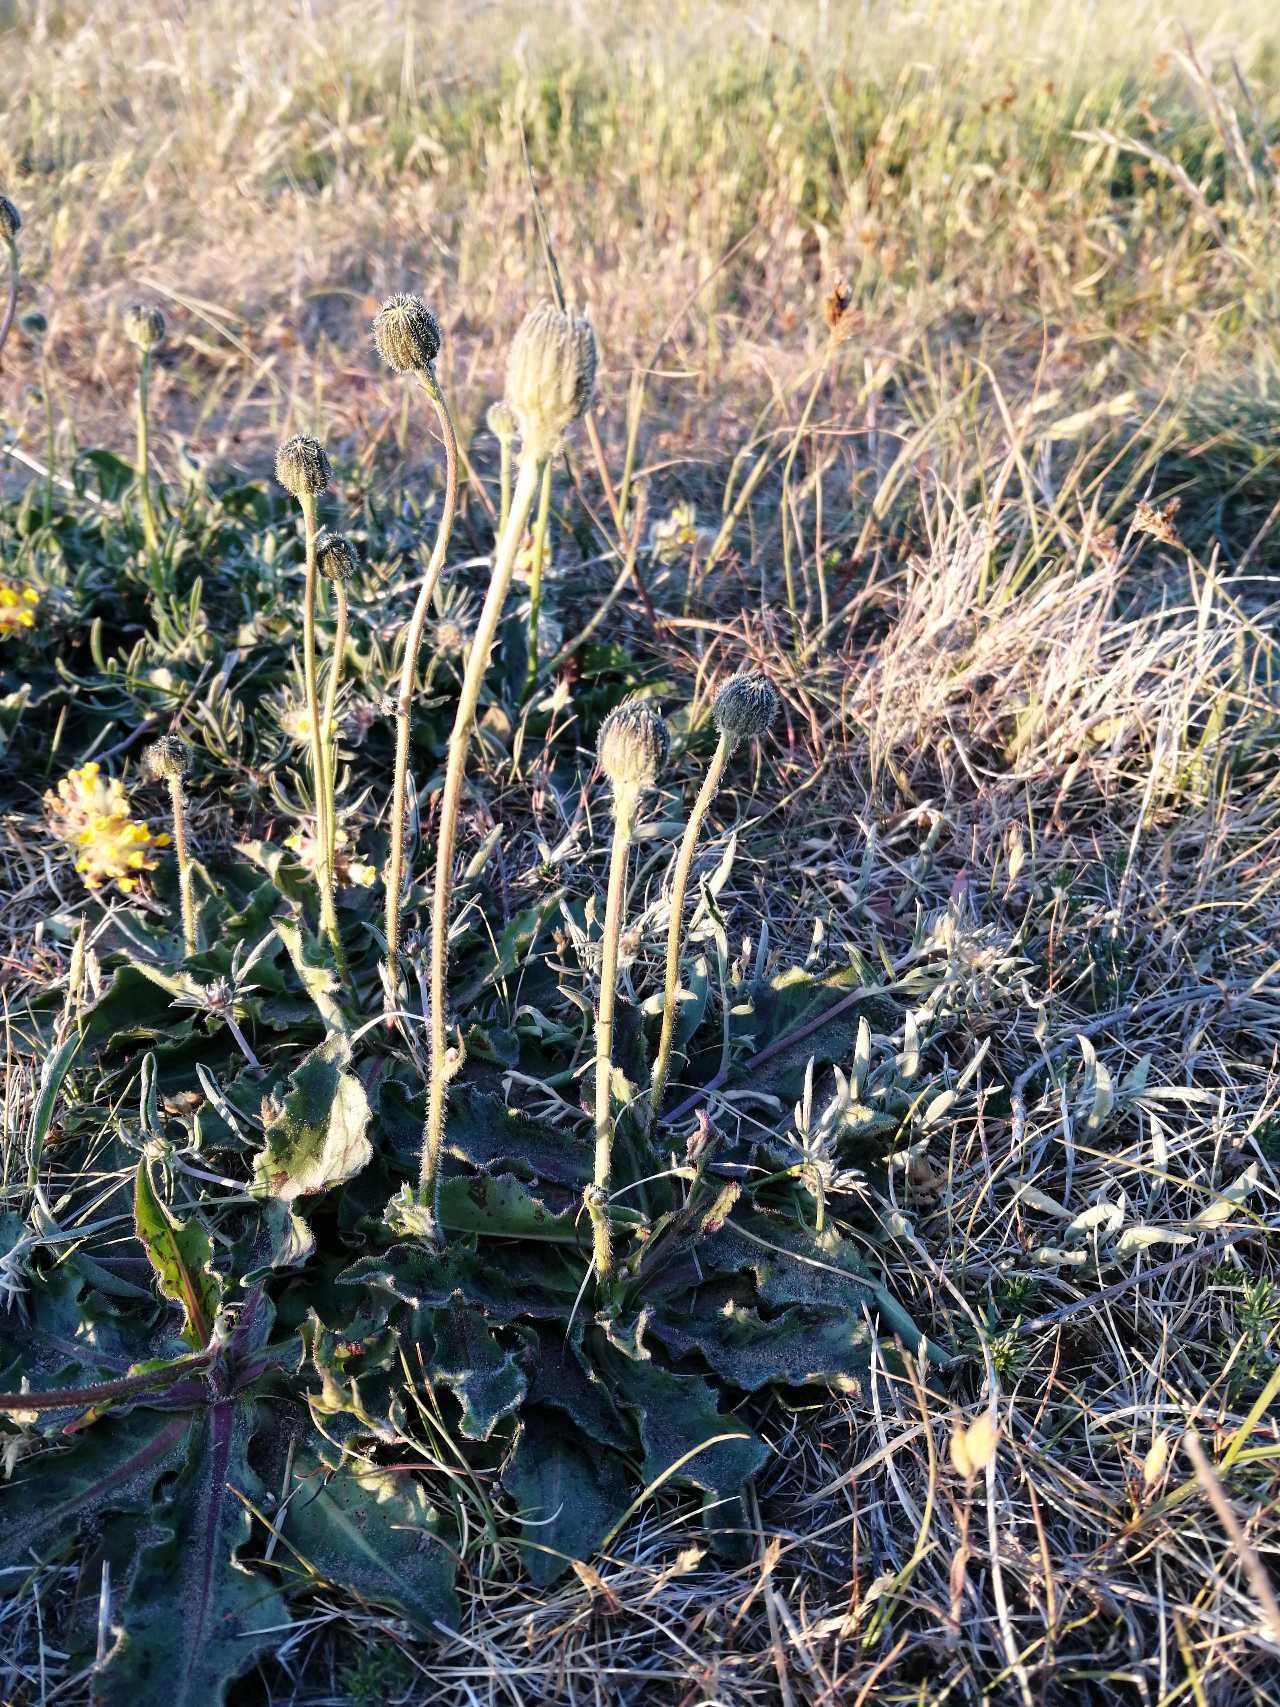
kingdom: Plantae
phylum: Tracheophyta
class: Magnoliopsida
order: Asterales
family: Asteraceae
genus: Trommsdorffia
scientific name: Trommsdorffia maculata
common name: Plettet kongepen
